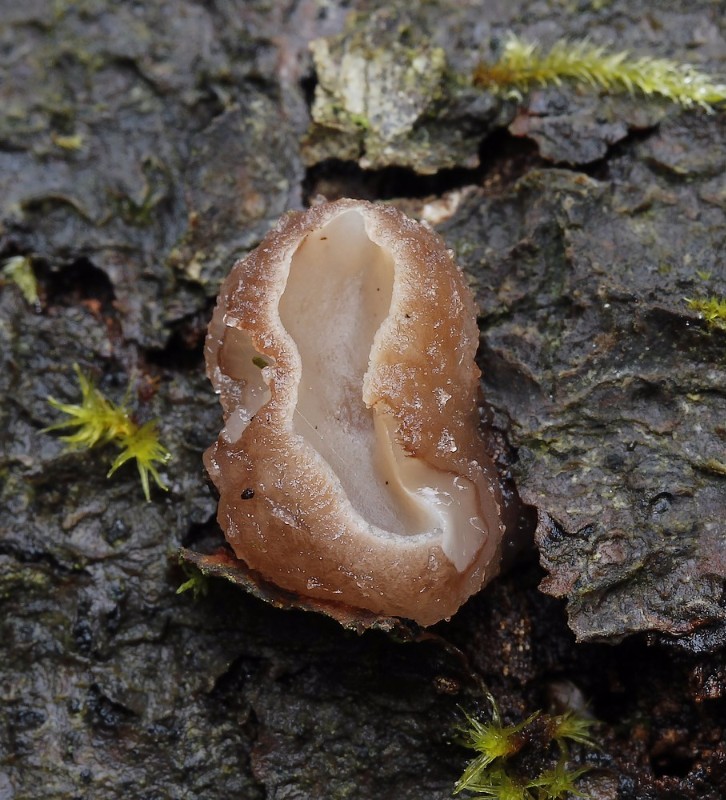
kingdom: Fungi
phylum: Ascomycota
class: Leotiomycetes
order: Helotiales
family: Gelatinodiscaceae
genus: Neobulgaria
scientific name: Neobulgaria pura
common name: bleg bævreskive
